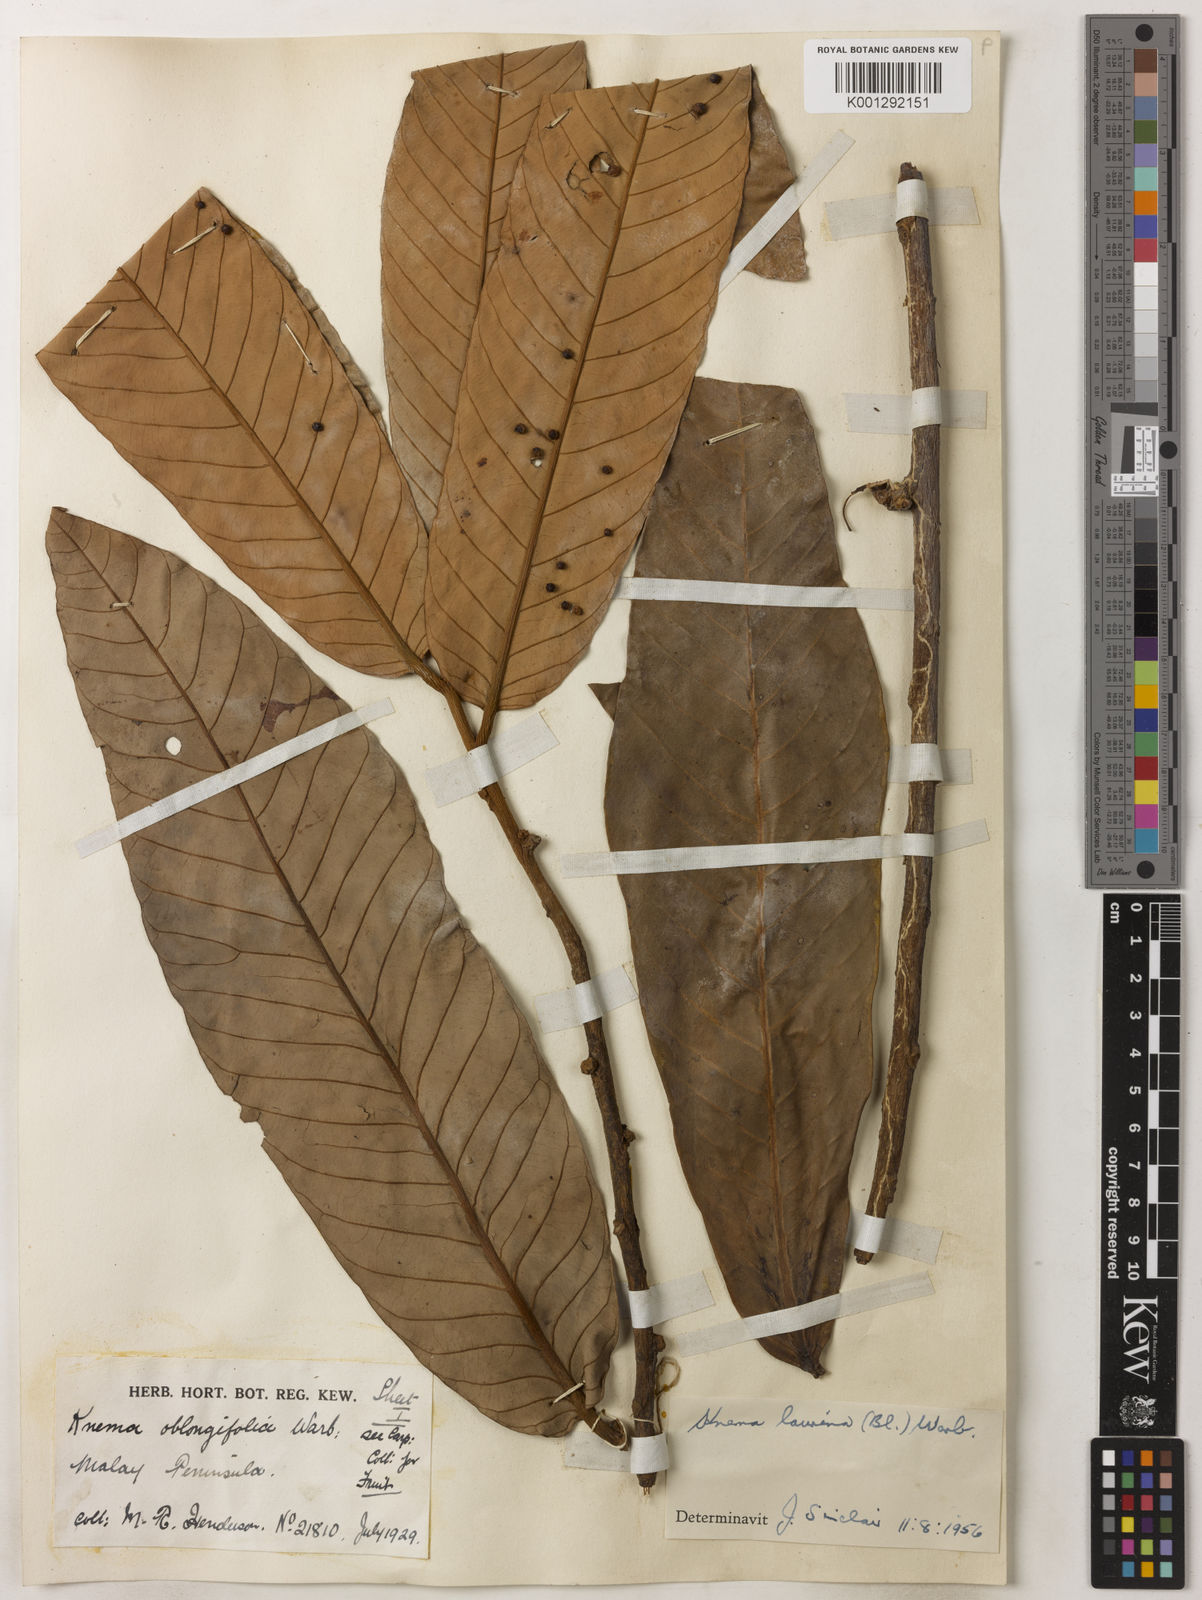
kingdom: Plantae
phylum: Tracheophyta
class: Magnoliopsida
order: Magnoliales
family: Myristicaceae
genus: Knema
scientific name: Knema laurina
